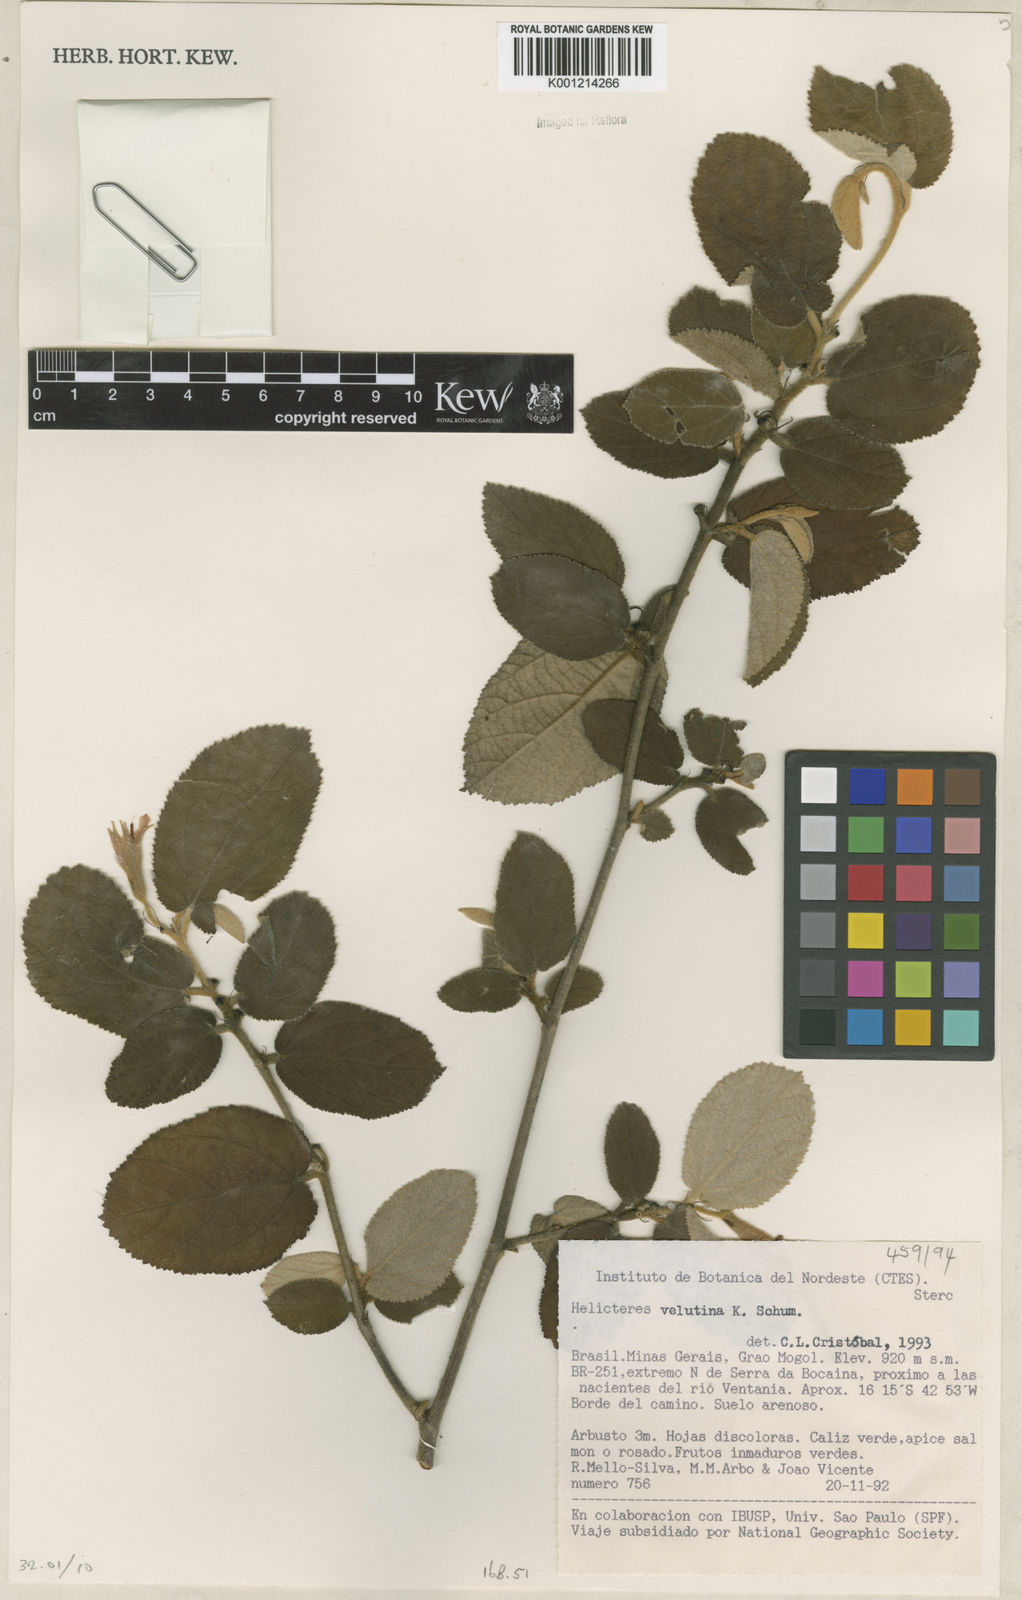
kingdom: Plantae
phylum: Tracheophyta
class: Magnoliopsida
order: Malvales
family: Malvaceae
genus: Helicteres
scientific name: Helicteres velutina
